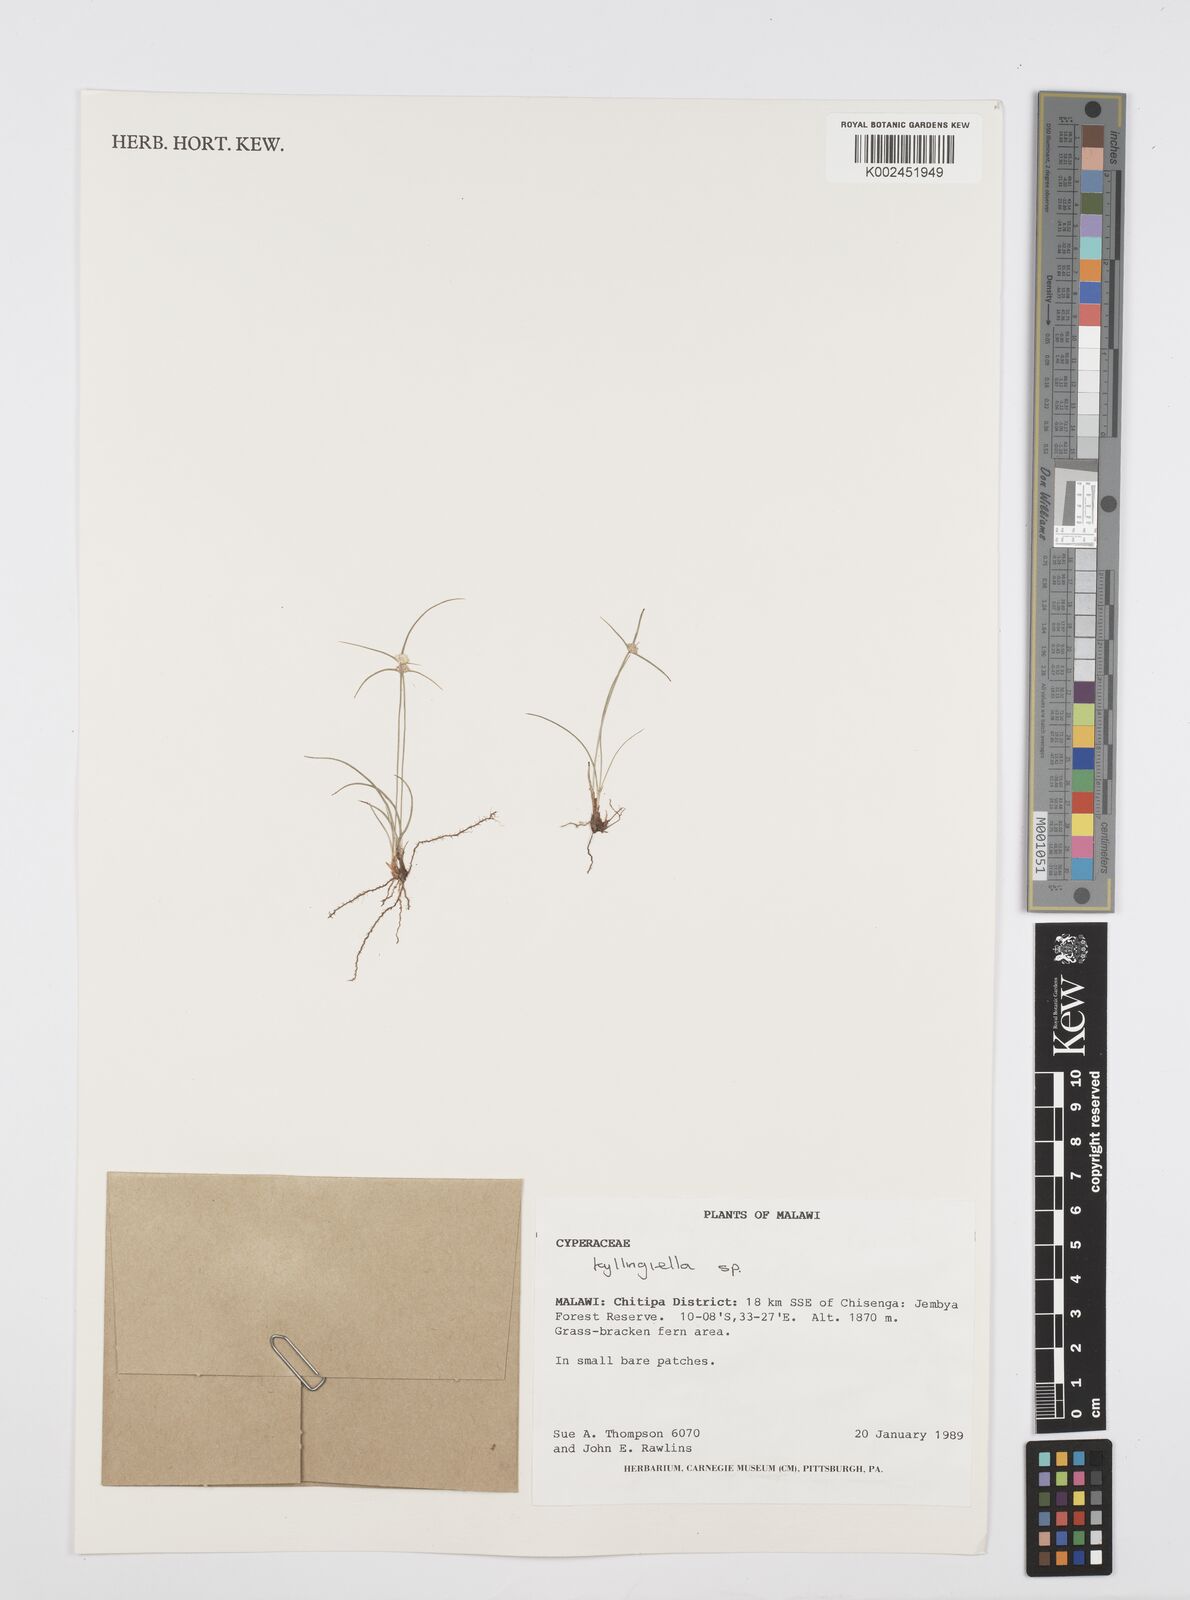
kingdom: Plantae
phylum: Tracheophyta
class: Liliopsida
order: Poales
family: Cyperaceae
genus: Cyperus
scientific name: Cyperus microcephalus
